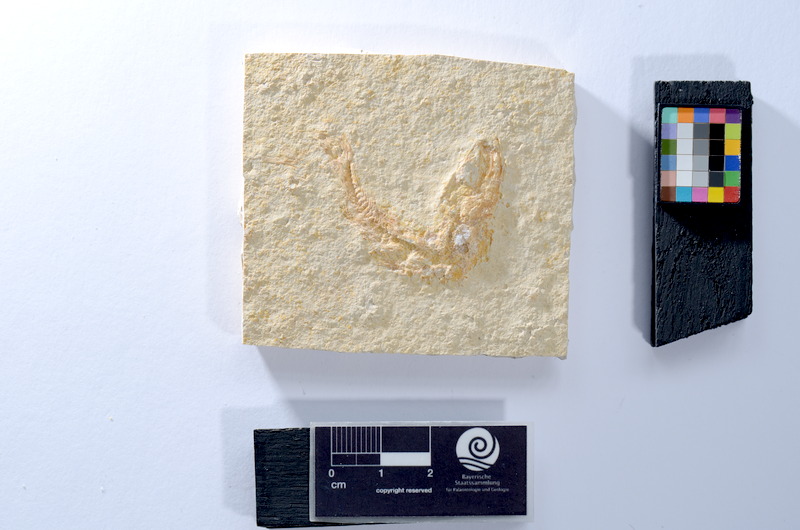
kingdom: Animalia
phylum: Chordata
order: Salmoniformes
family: Orthogonikleithridae
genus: Leptolepides
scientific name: Leptolepides
